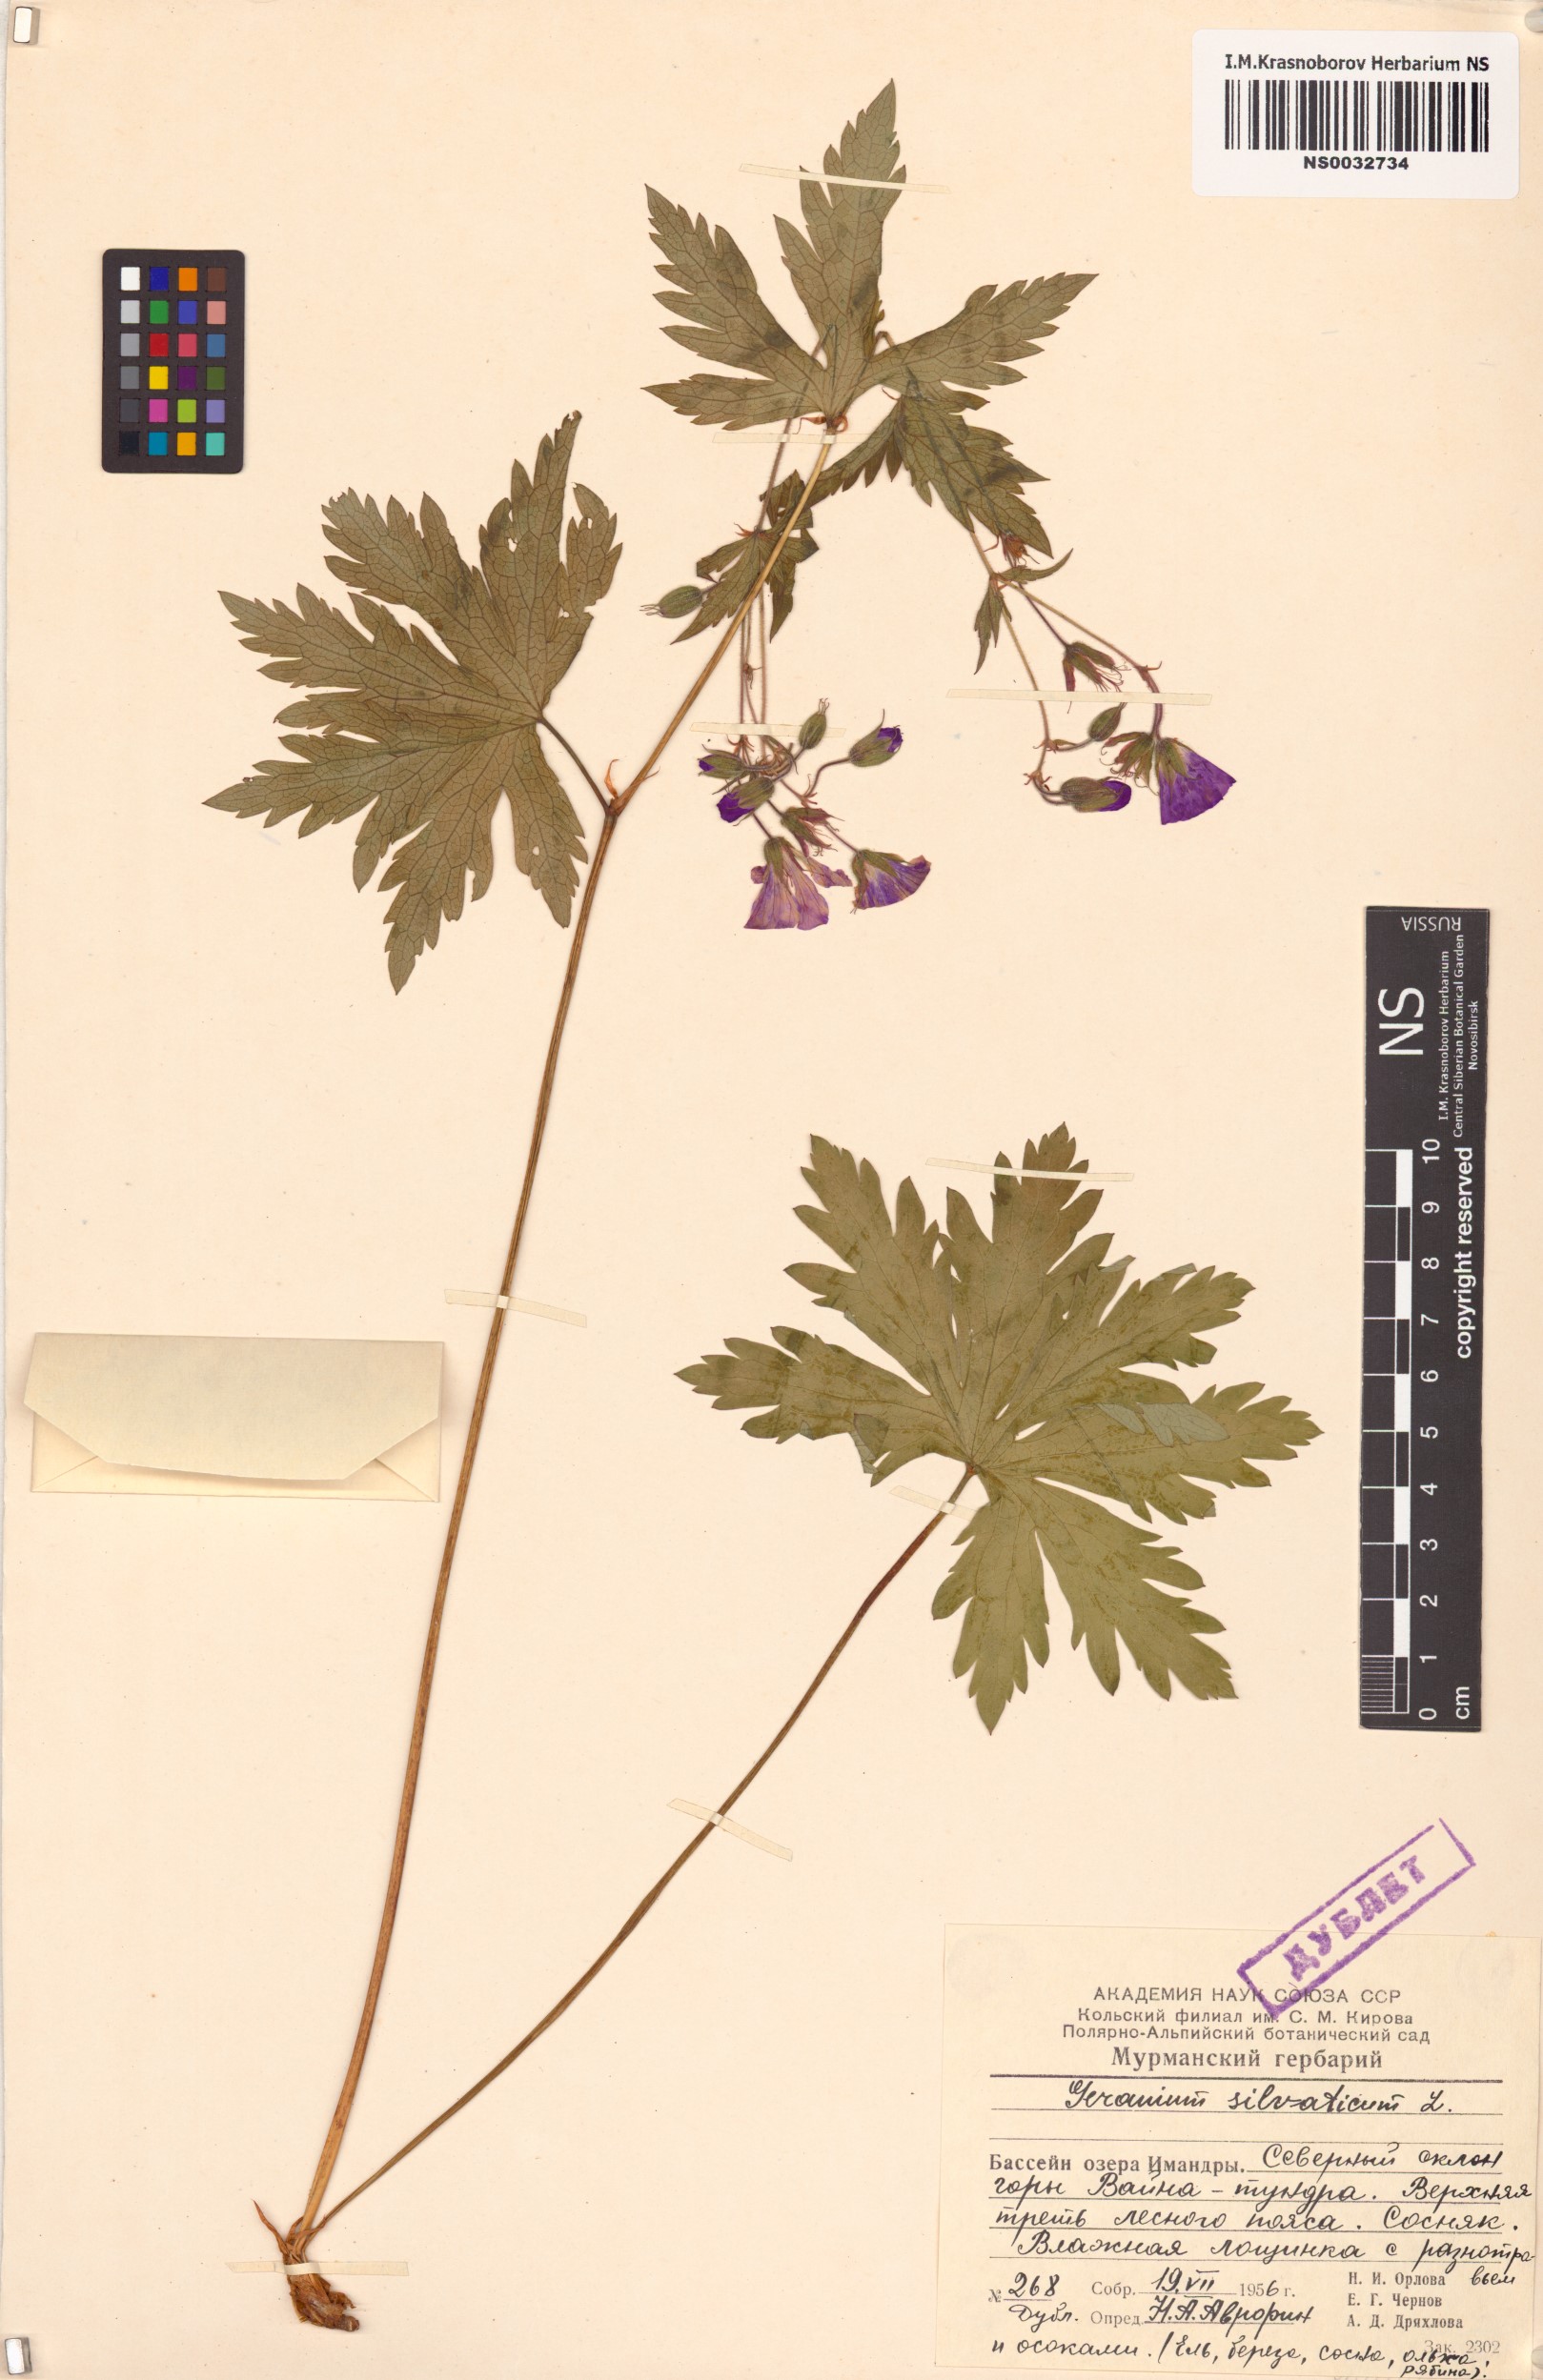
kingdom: Plantae
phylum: Tracheophyta
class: Magnoliopsida
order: Geraniales
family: Geraniaceae
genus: Geranium
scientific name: Geranium sylvaticum
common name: Wood crane's-bill
